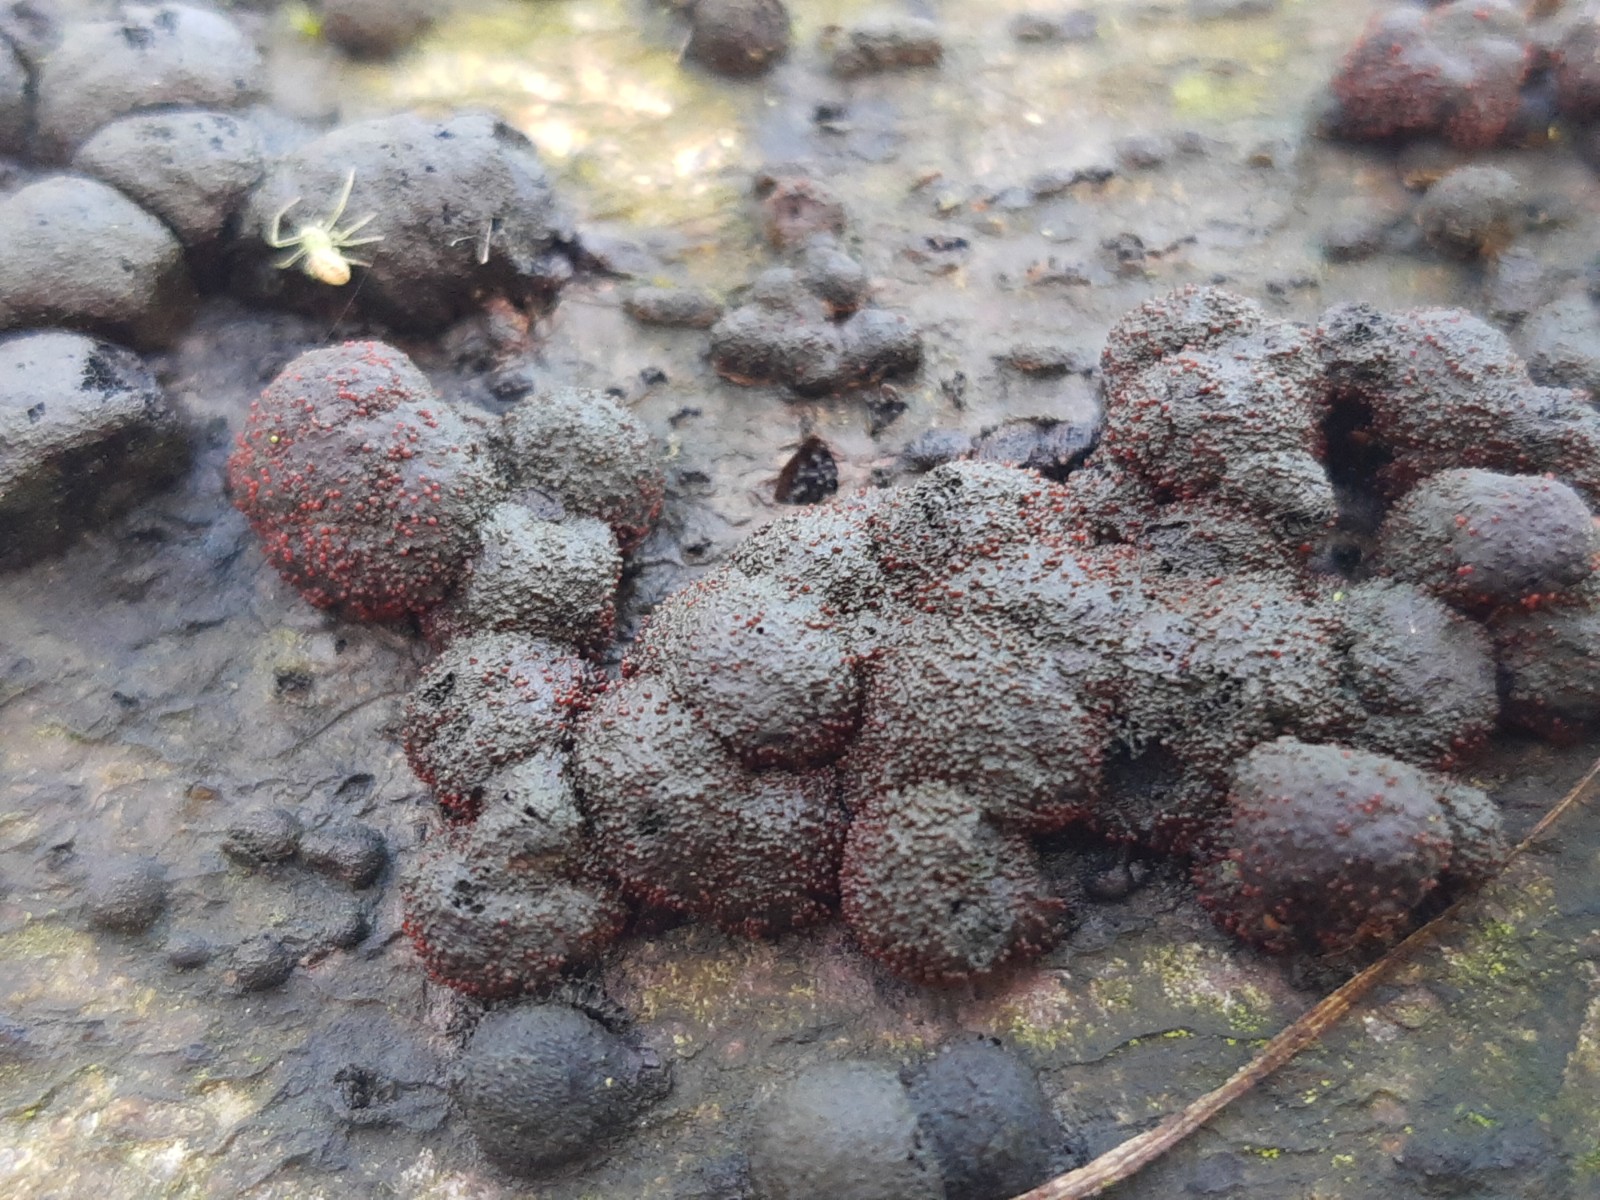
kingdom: Fungi
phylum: Ascomycota
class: Sordariomycetes
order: Hypocreales
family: Nectriaceae
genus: Cosmospora
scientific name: Cosmospora arxii
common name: kuljordbær-cinnobersvamp
